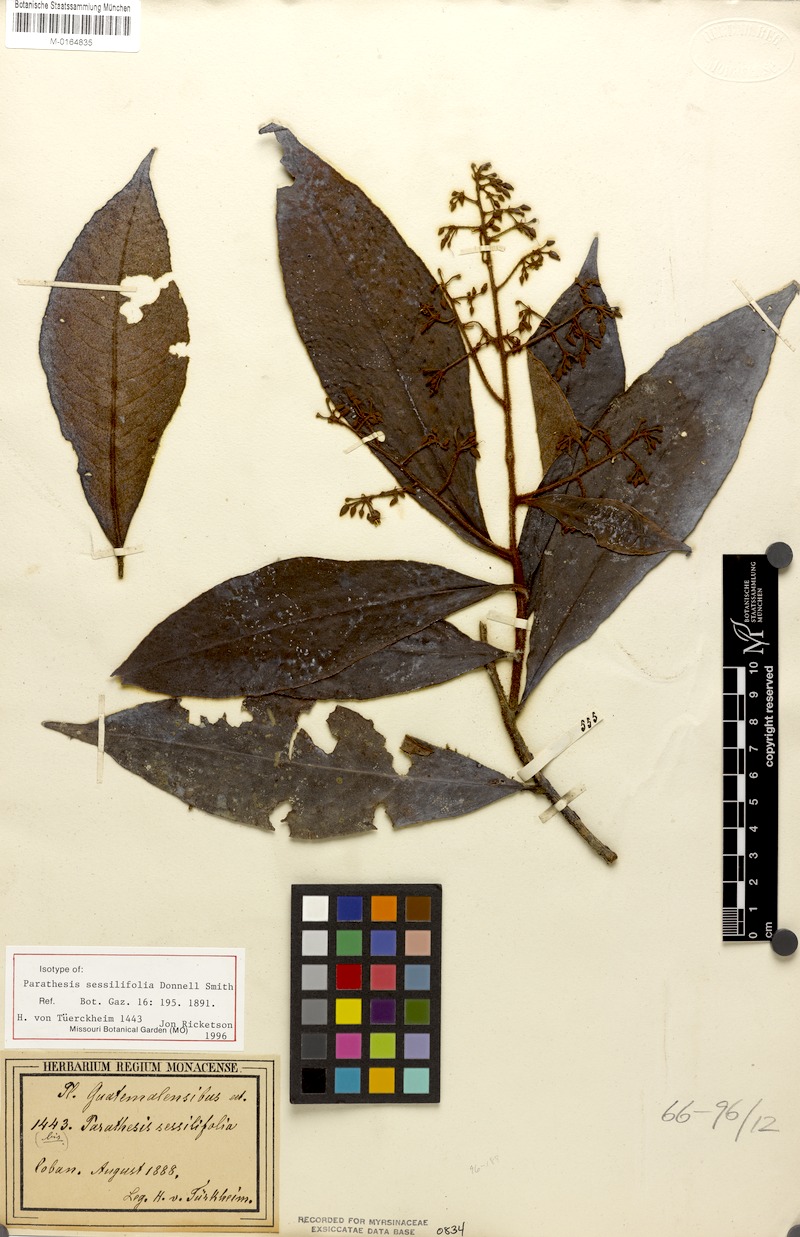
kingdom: Plantae
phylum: Tracheophyta
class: Magnoliopsida
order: Ericales
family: Primulaceae
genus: Parathesis
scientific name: Parathesis sessilifolia
